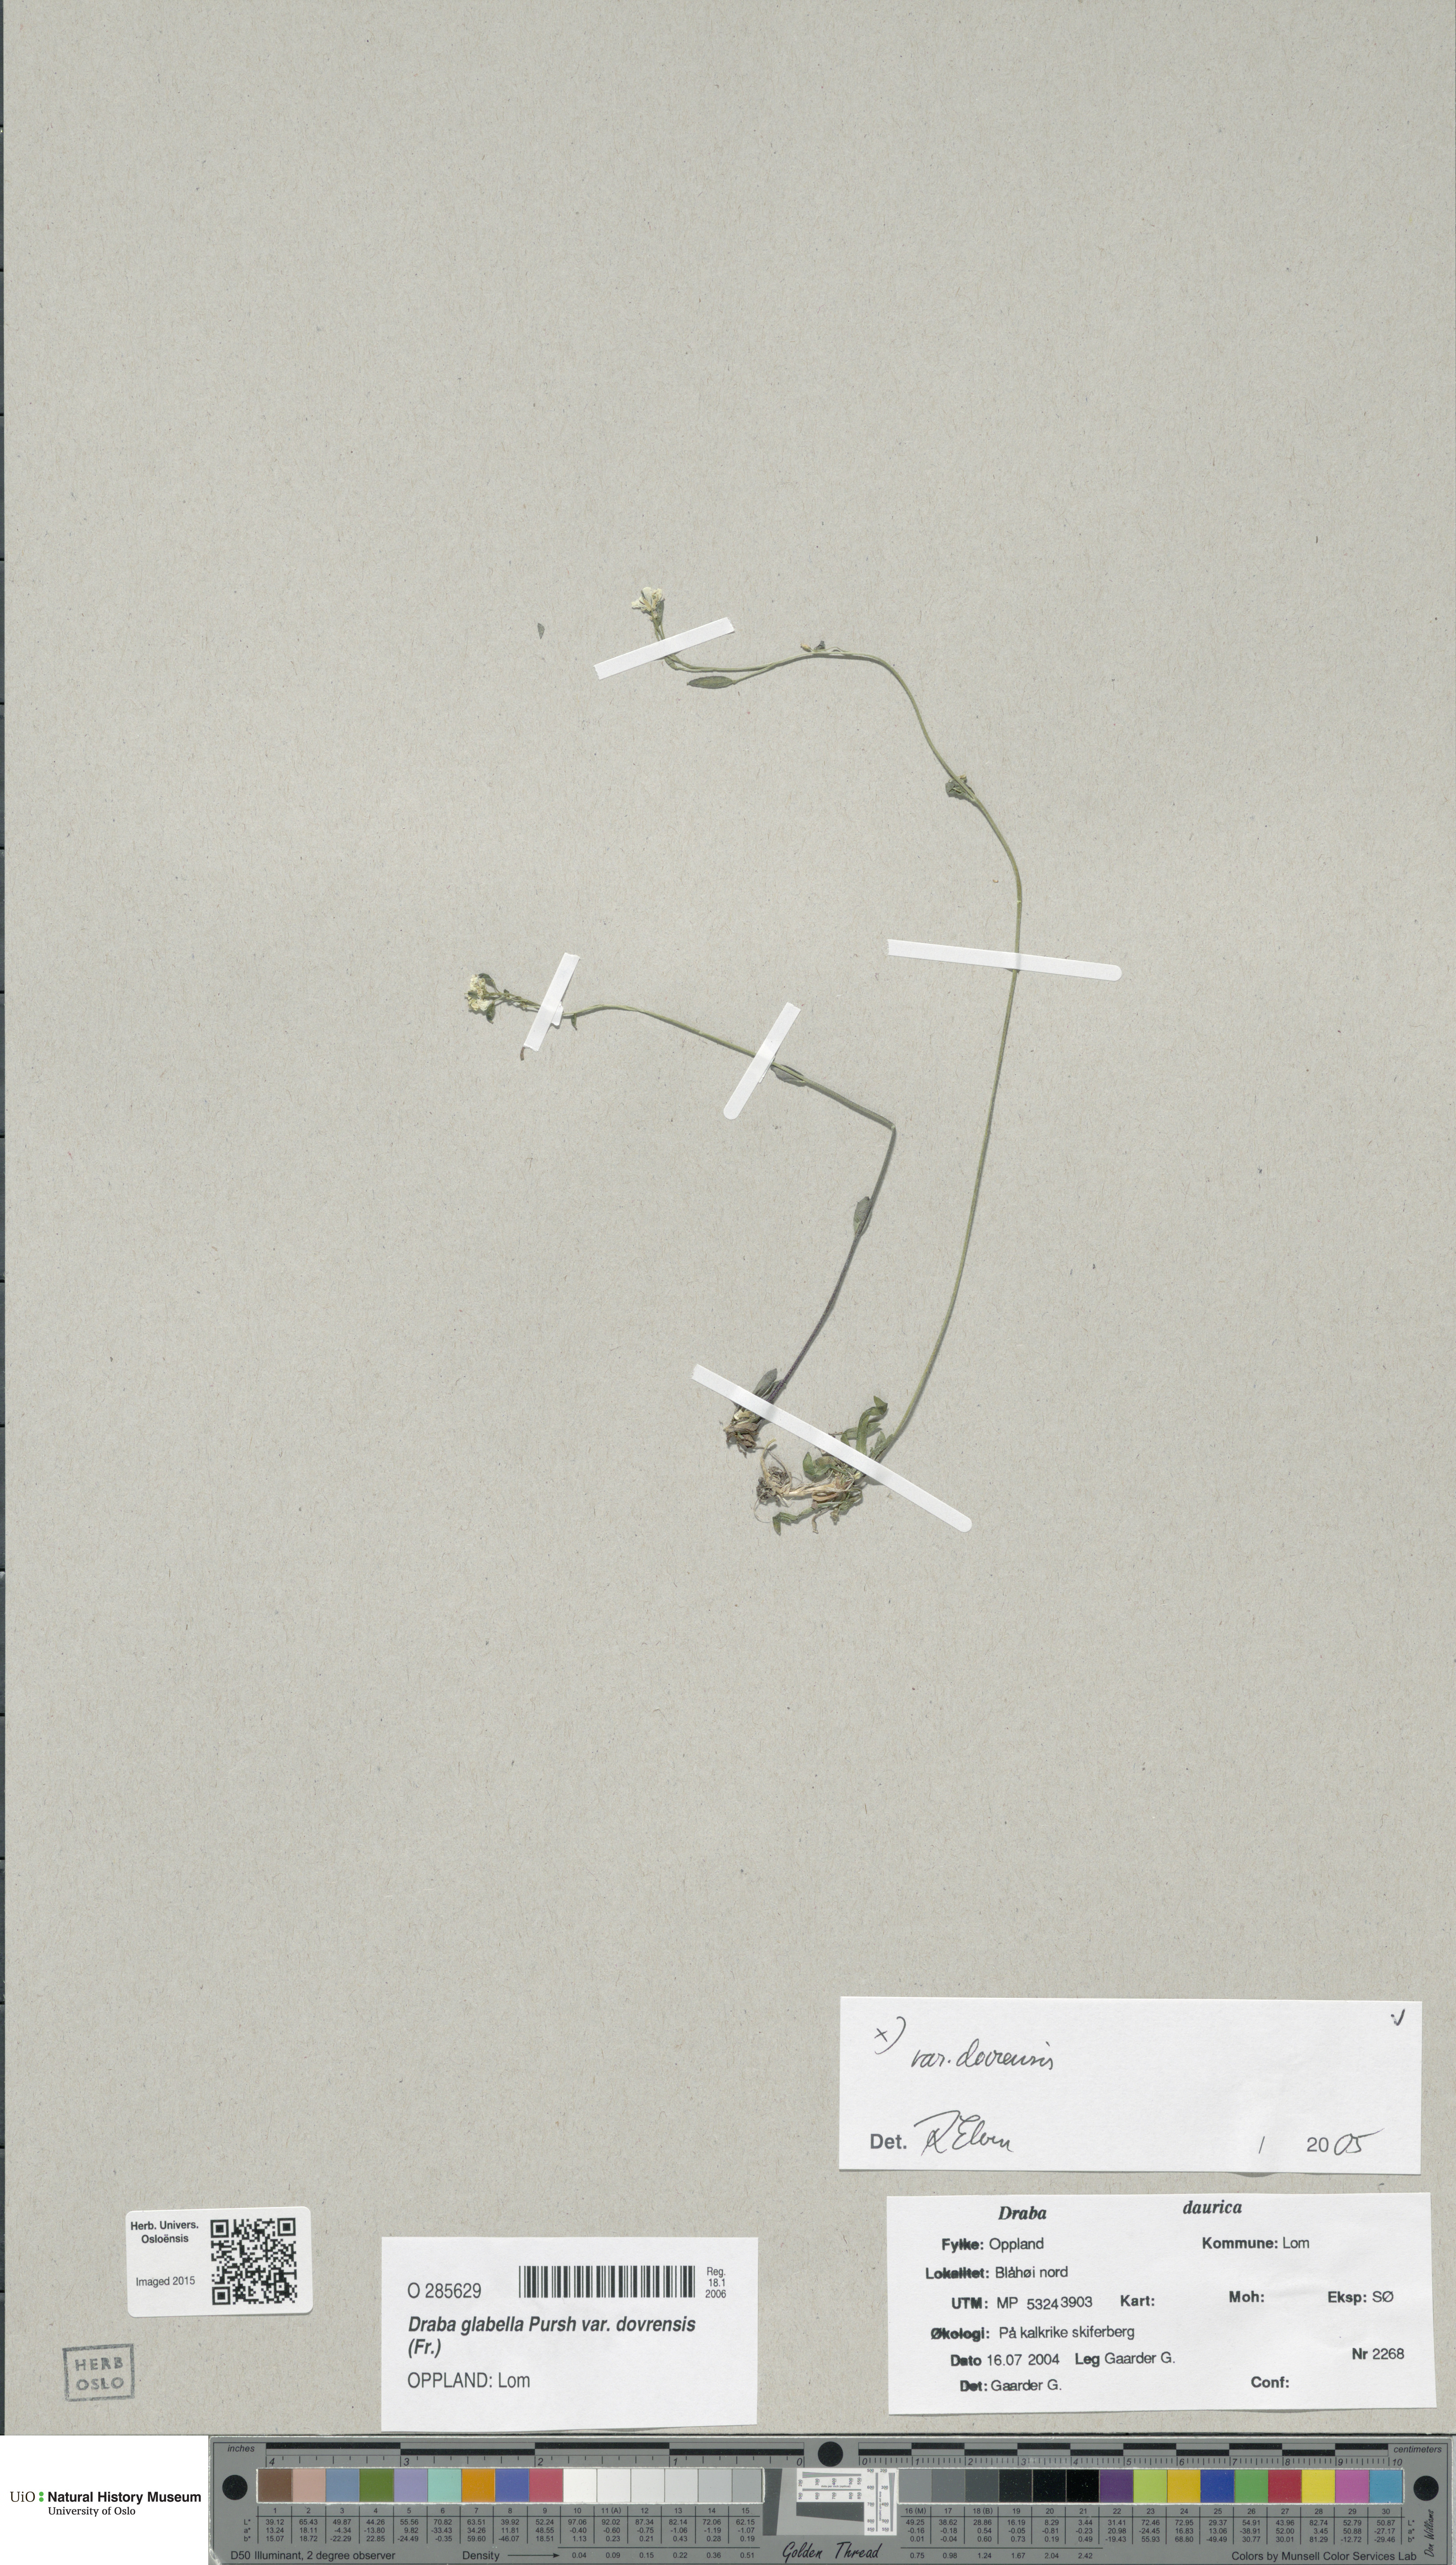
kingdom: Plantae
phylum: Tracheophyta
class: Magnoliopsida
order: Brassicales
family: Brassicaceae
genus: Draba
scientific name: Draba glabella
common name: Glaucous draba
